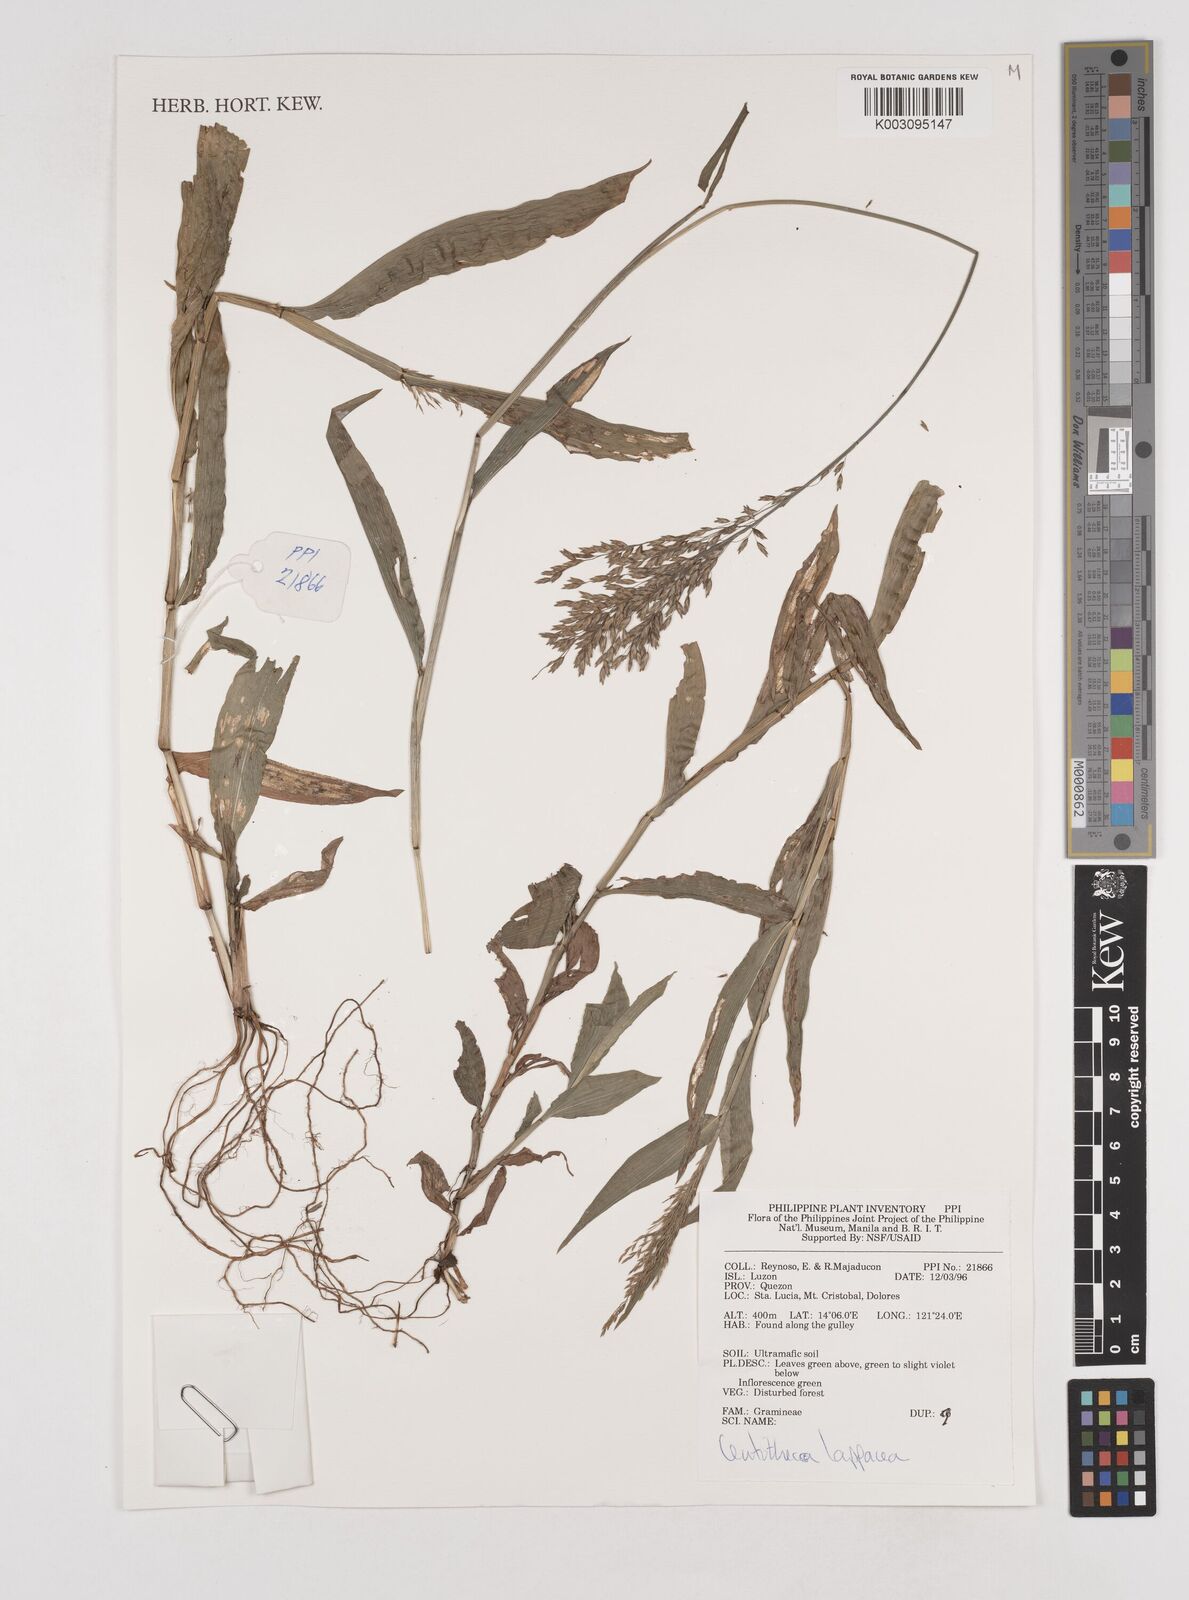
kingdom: Plantae
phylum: Tracheophyta
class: Liliopsida
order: Poales
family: Poaceae
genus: Centotheca
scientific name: Centotheca lappacea
